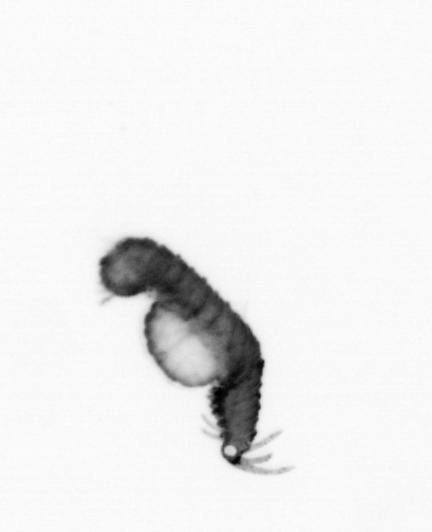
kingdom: Animalia
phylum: Annelida
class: Polychaeta
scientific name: Polychaeta
